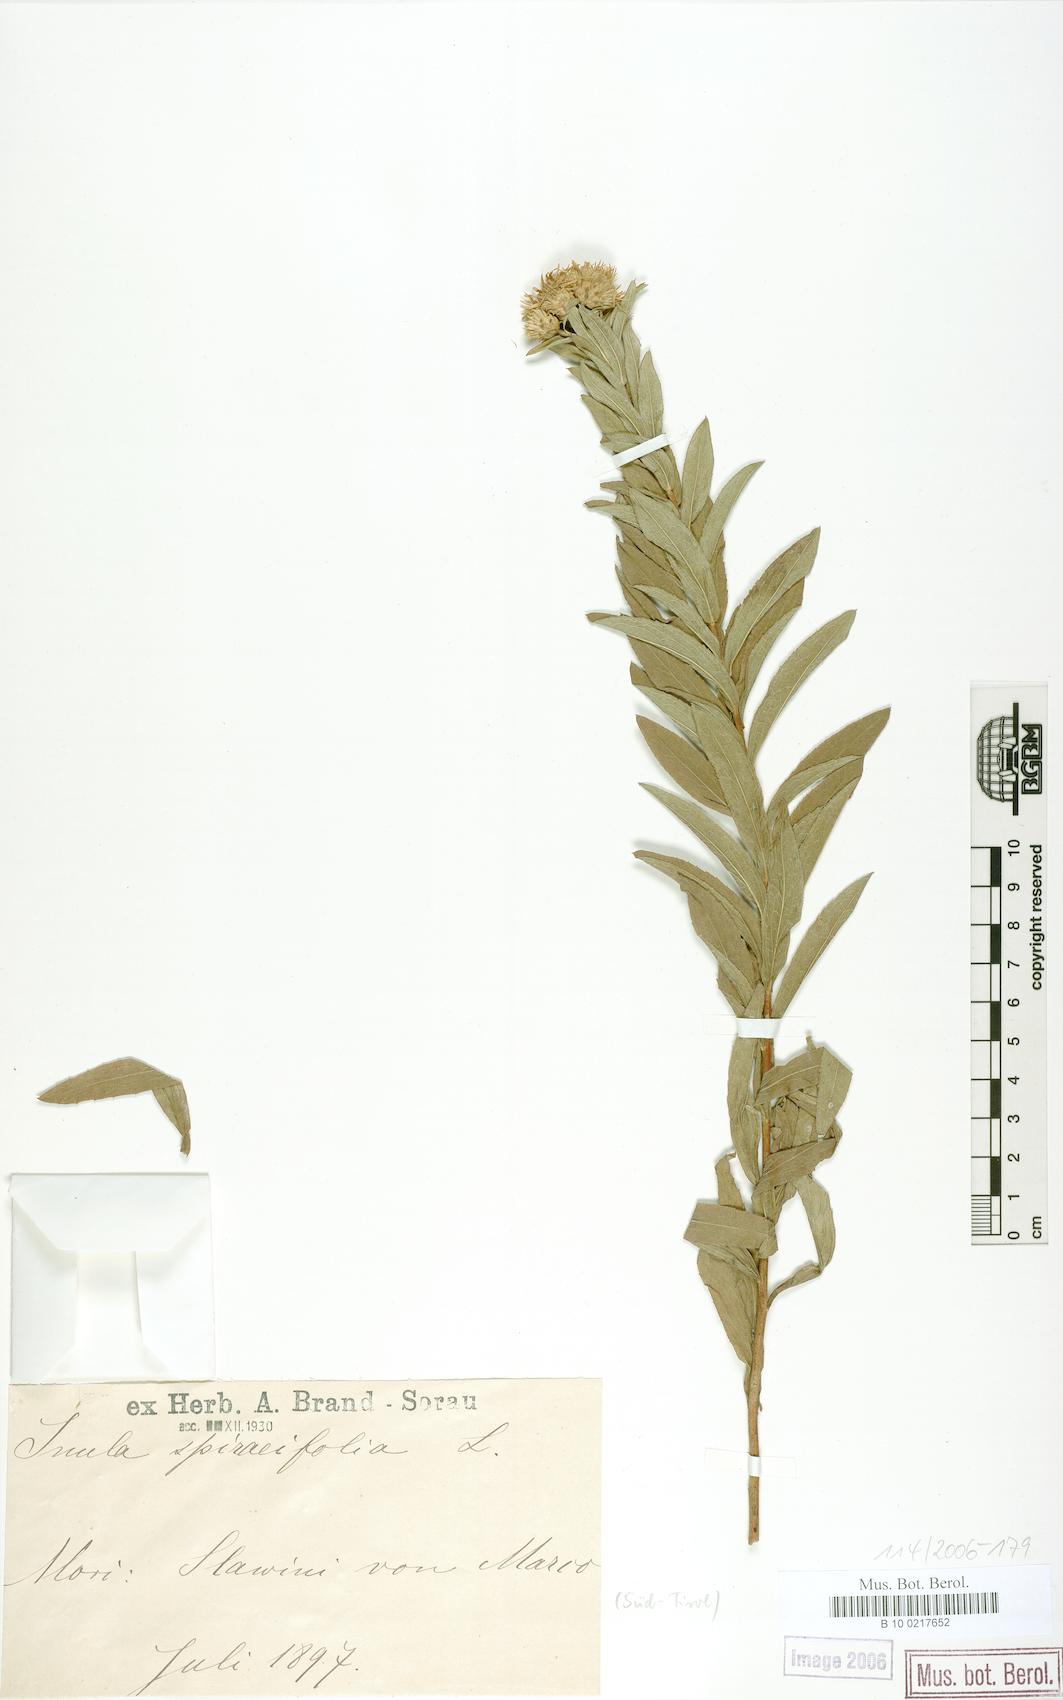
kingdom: Plantae
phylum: Tracheophyta
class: Magnoliopsida
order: Asterales
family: Asteraceae
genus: Pentanema
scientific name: Pentanema spiraeifolium
